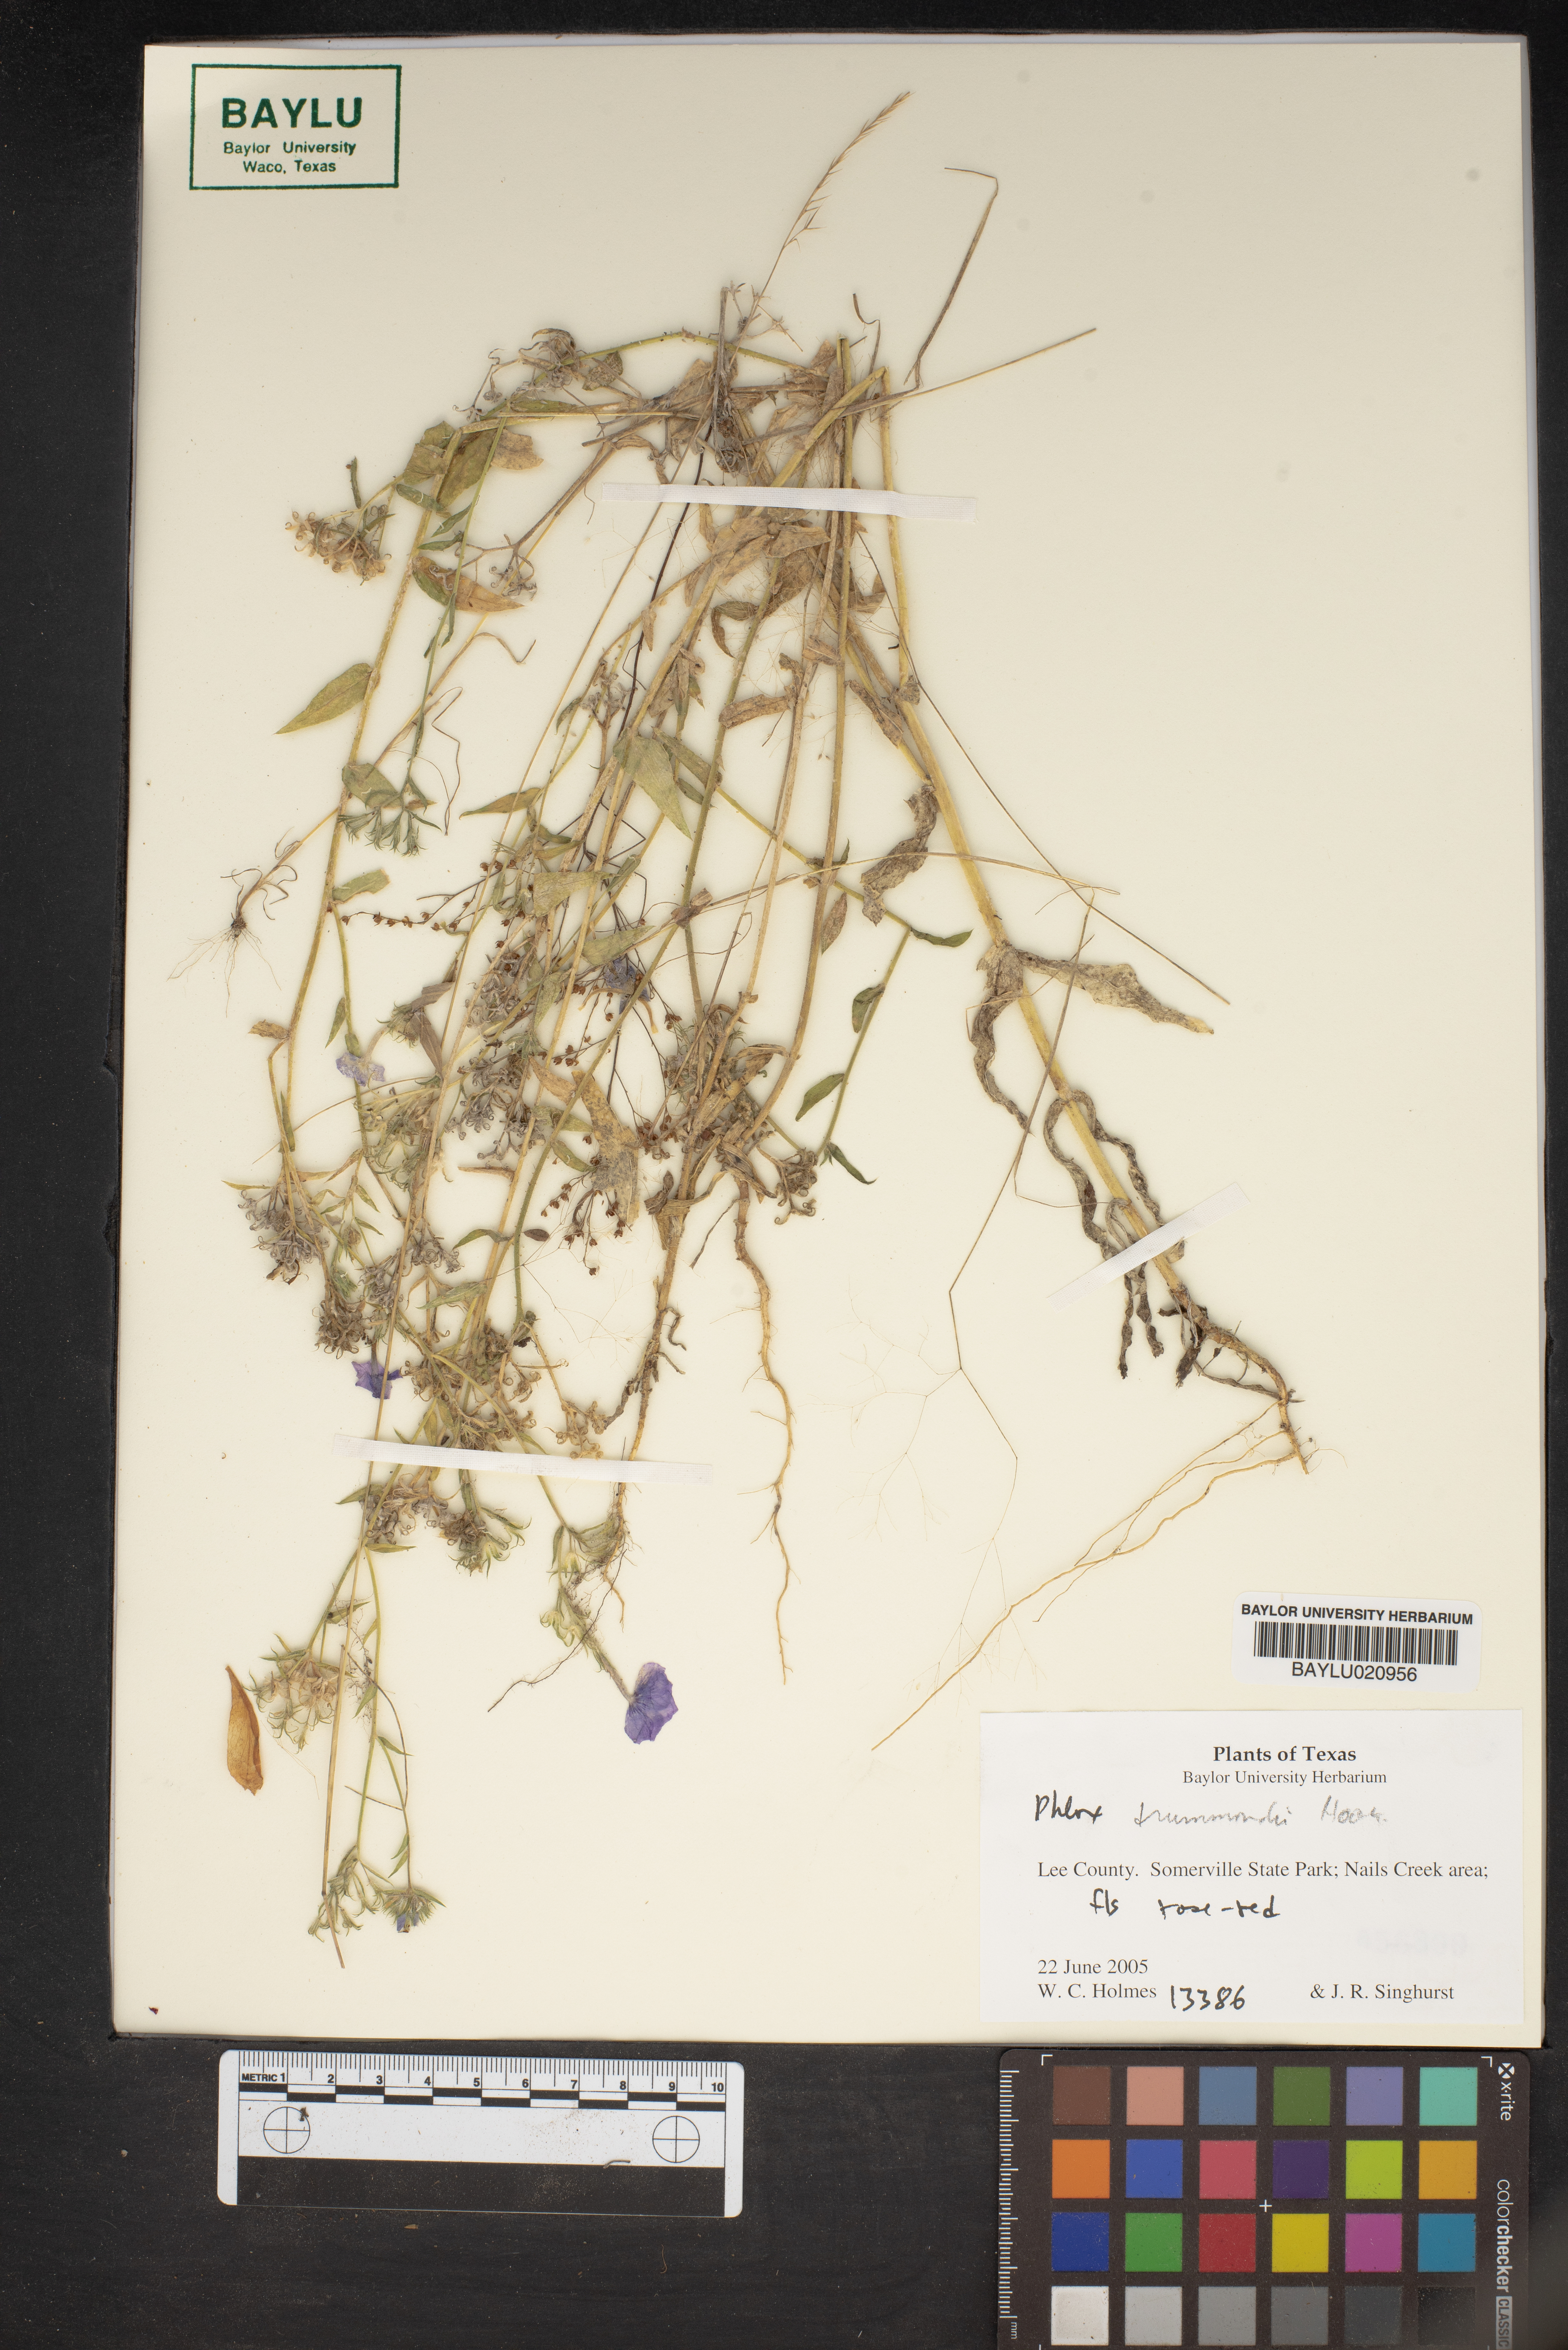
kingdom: Plantae
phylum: Tracheophyta
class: Magnoliopsida
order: Ericales
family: Polemoniaceae
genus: Phlox
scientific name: Phlox drummondii
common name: Drummond's phlox
